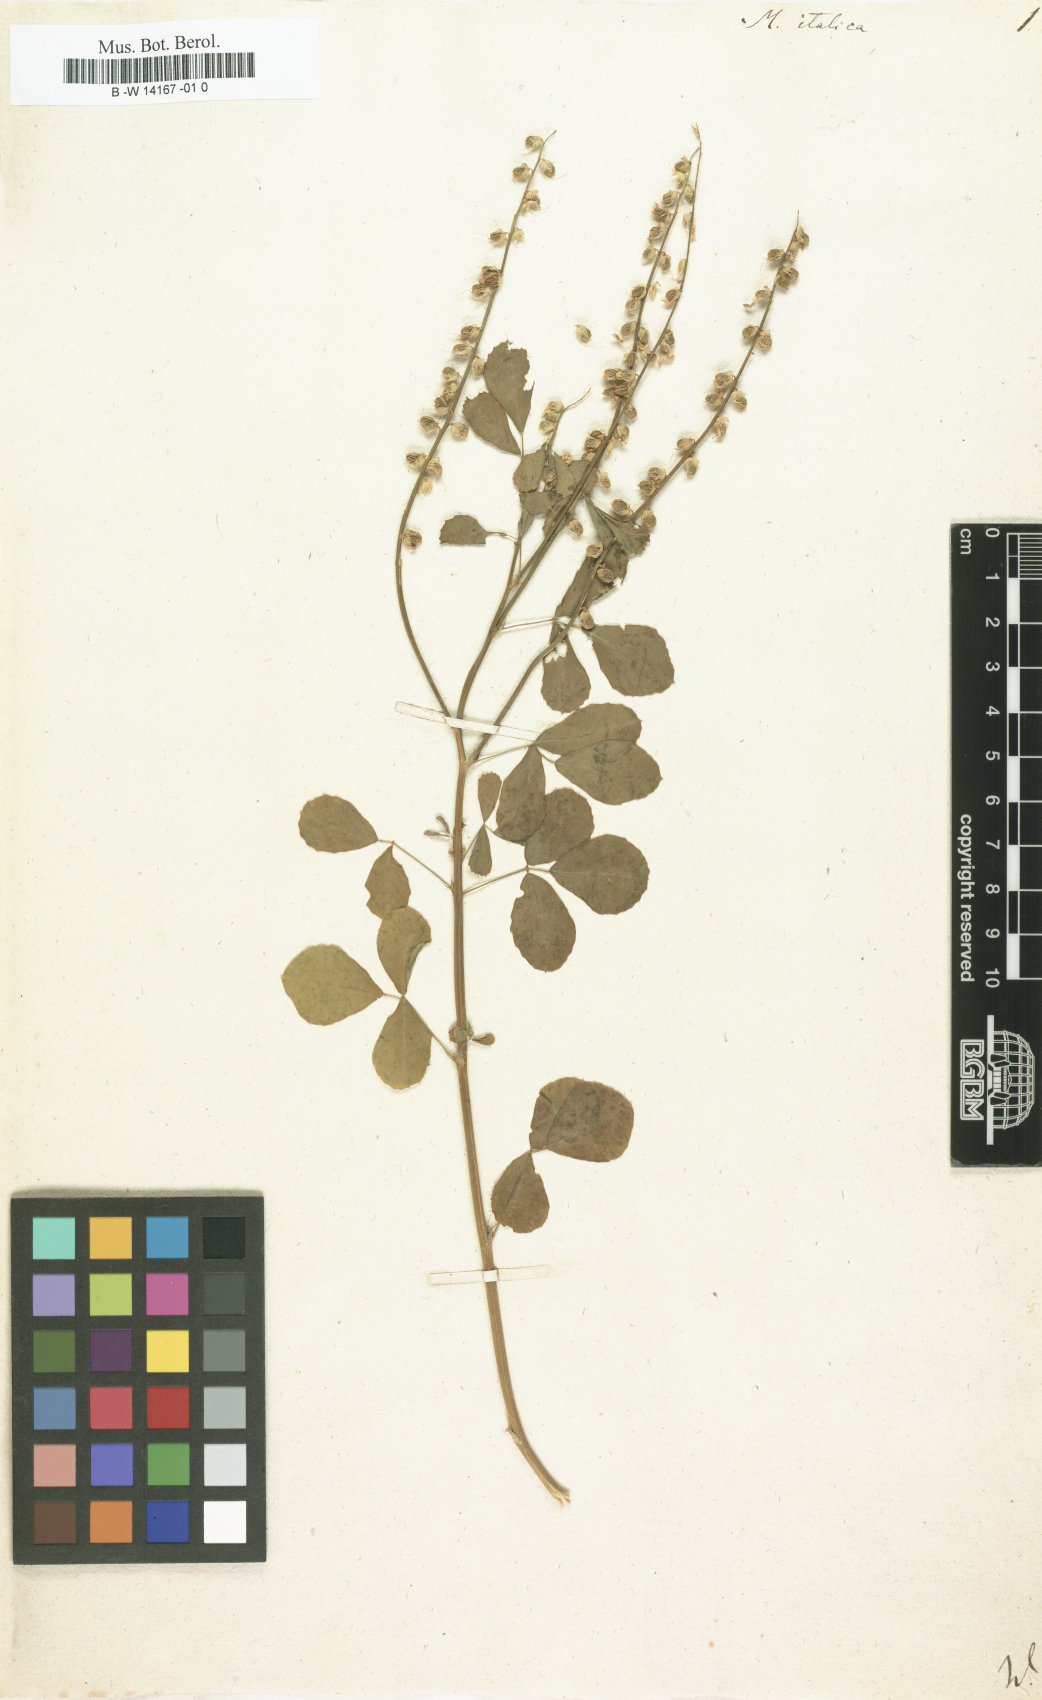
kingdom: Plantae
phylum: Tracheophyta
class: Magnoliopsida
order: Fabales
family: Fabaceae
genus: Melilotus
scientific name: Melilotus italicus
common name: Italian melilot
